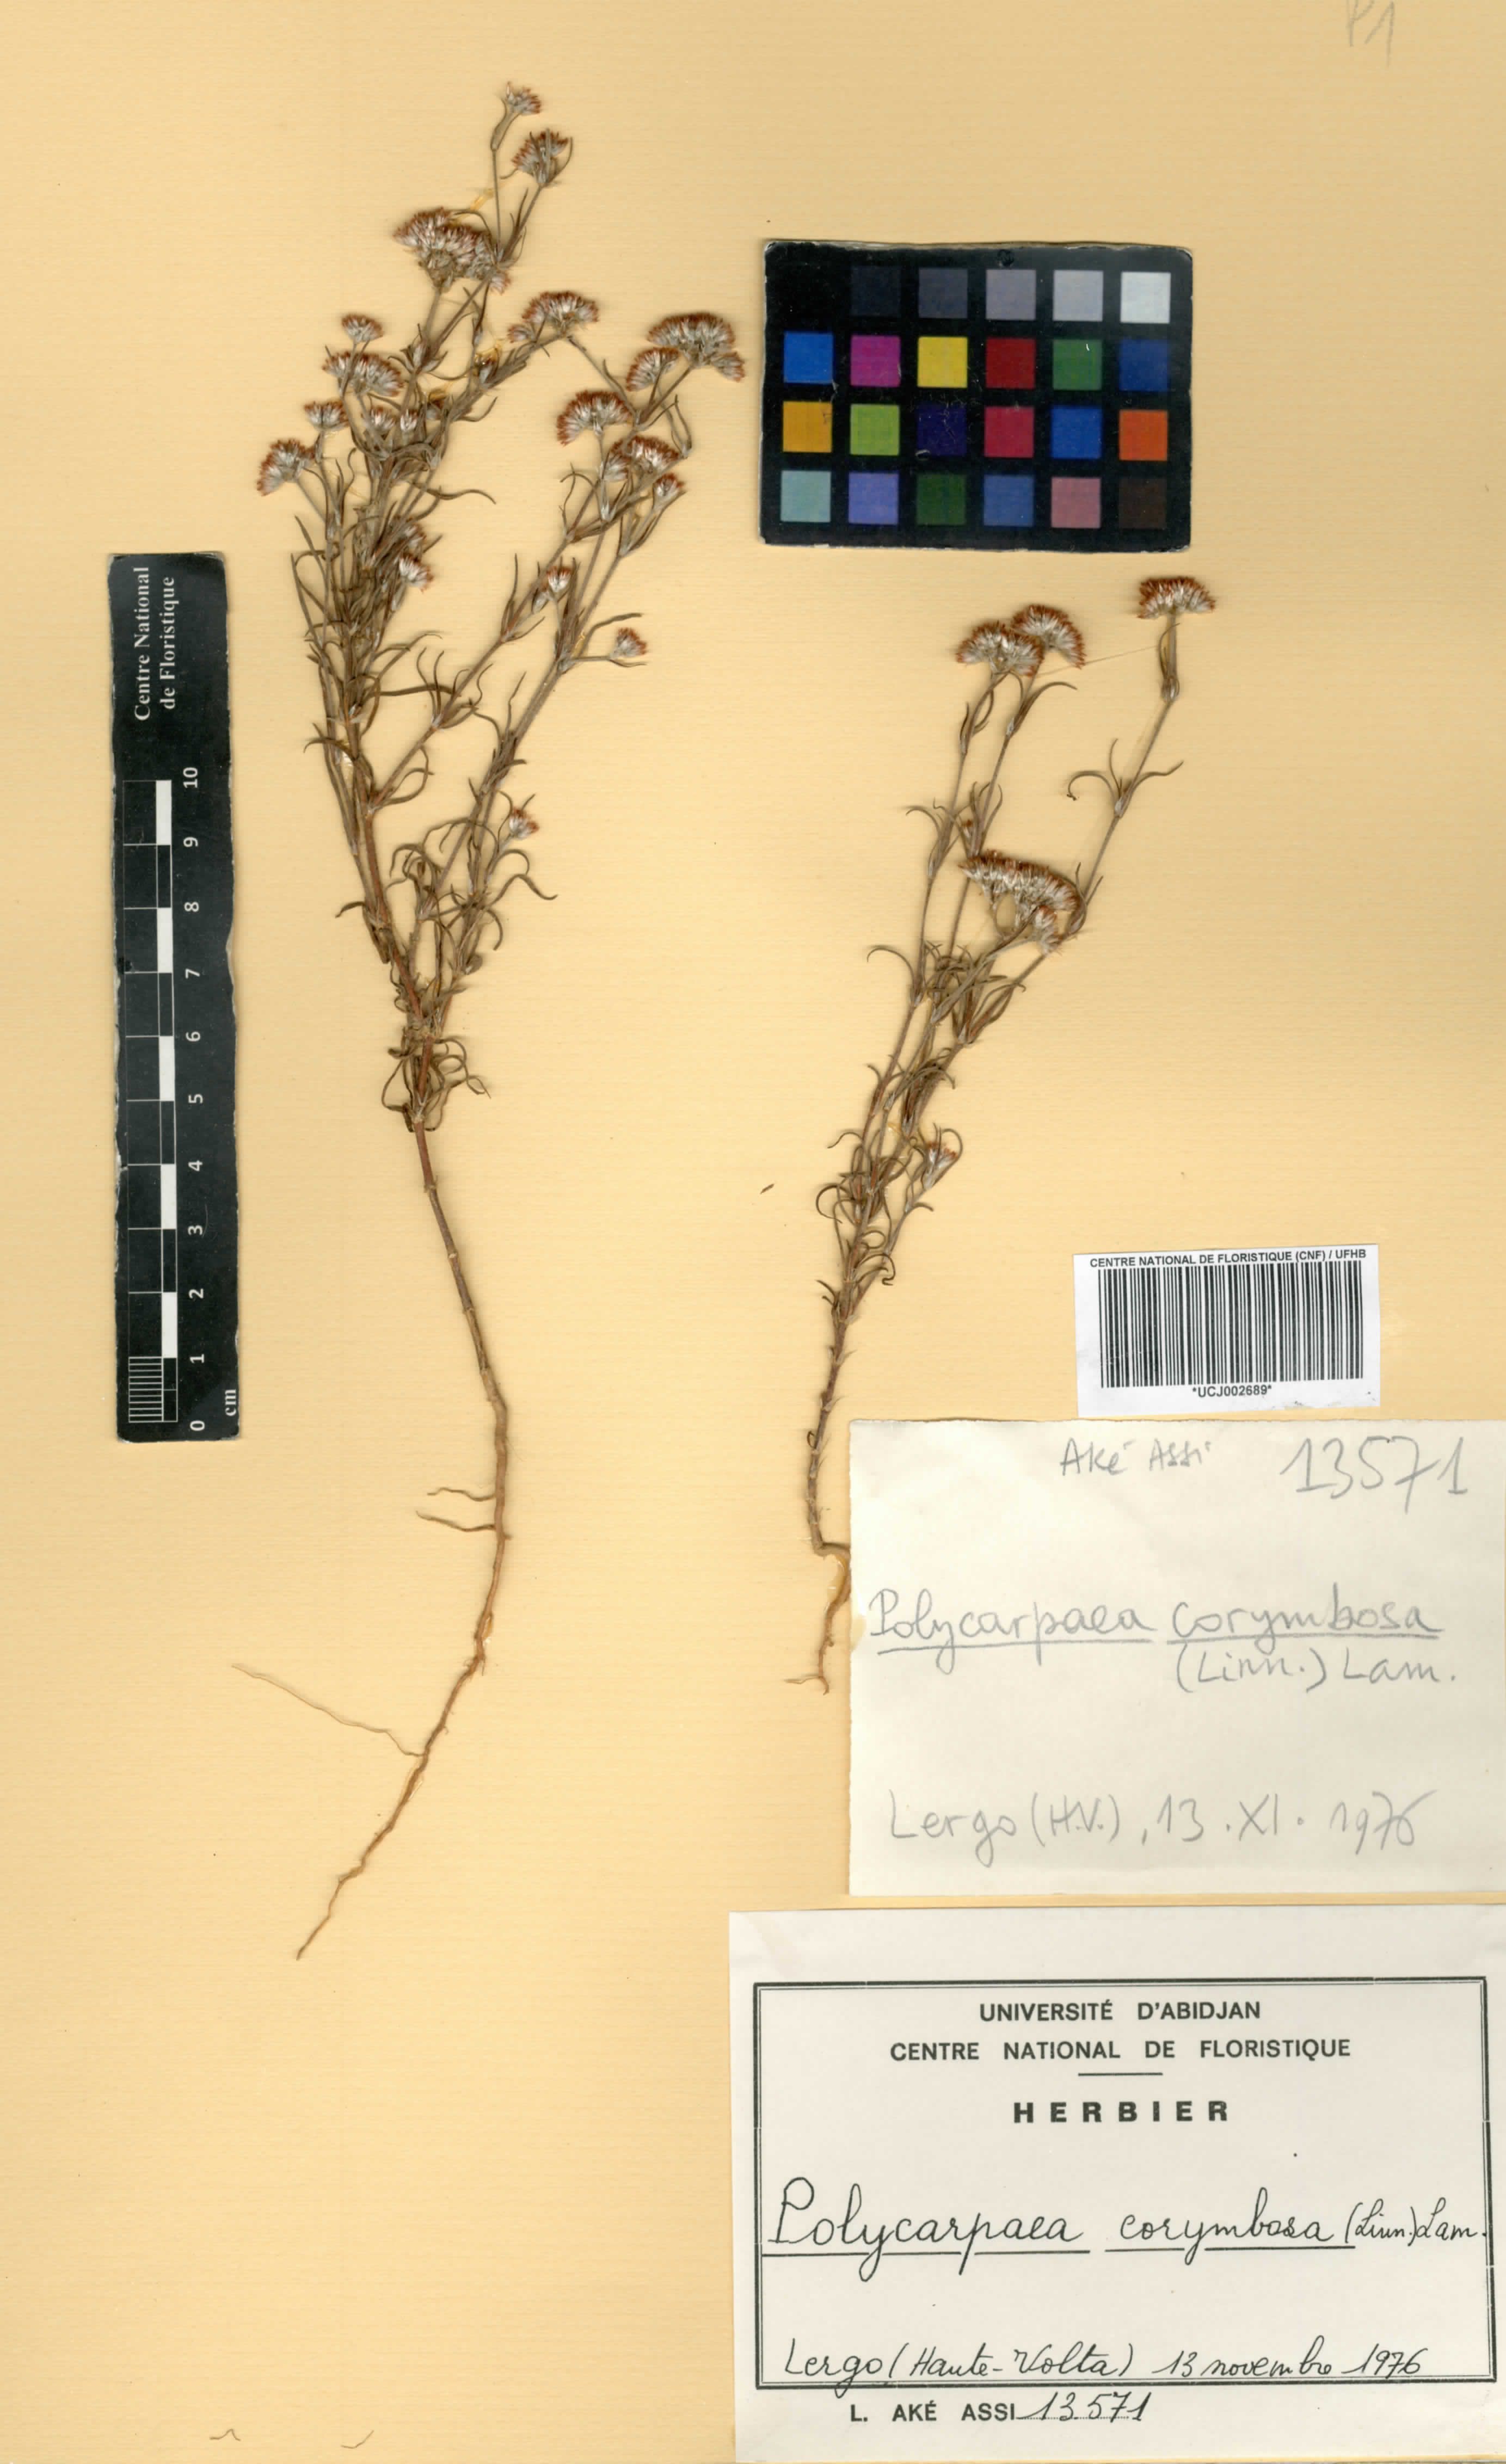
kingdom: Plantae
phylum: Tracheophyta
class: Magnoliopsida
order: Caryophyllales
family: Caryophyllaceae
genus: Polycarpaea
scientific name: Polycarpaea corymbosa
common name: Oldman's cap
